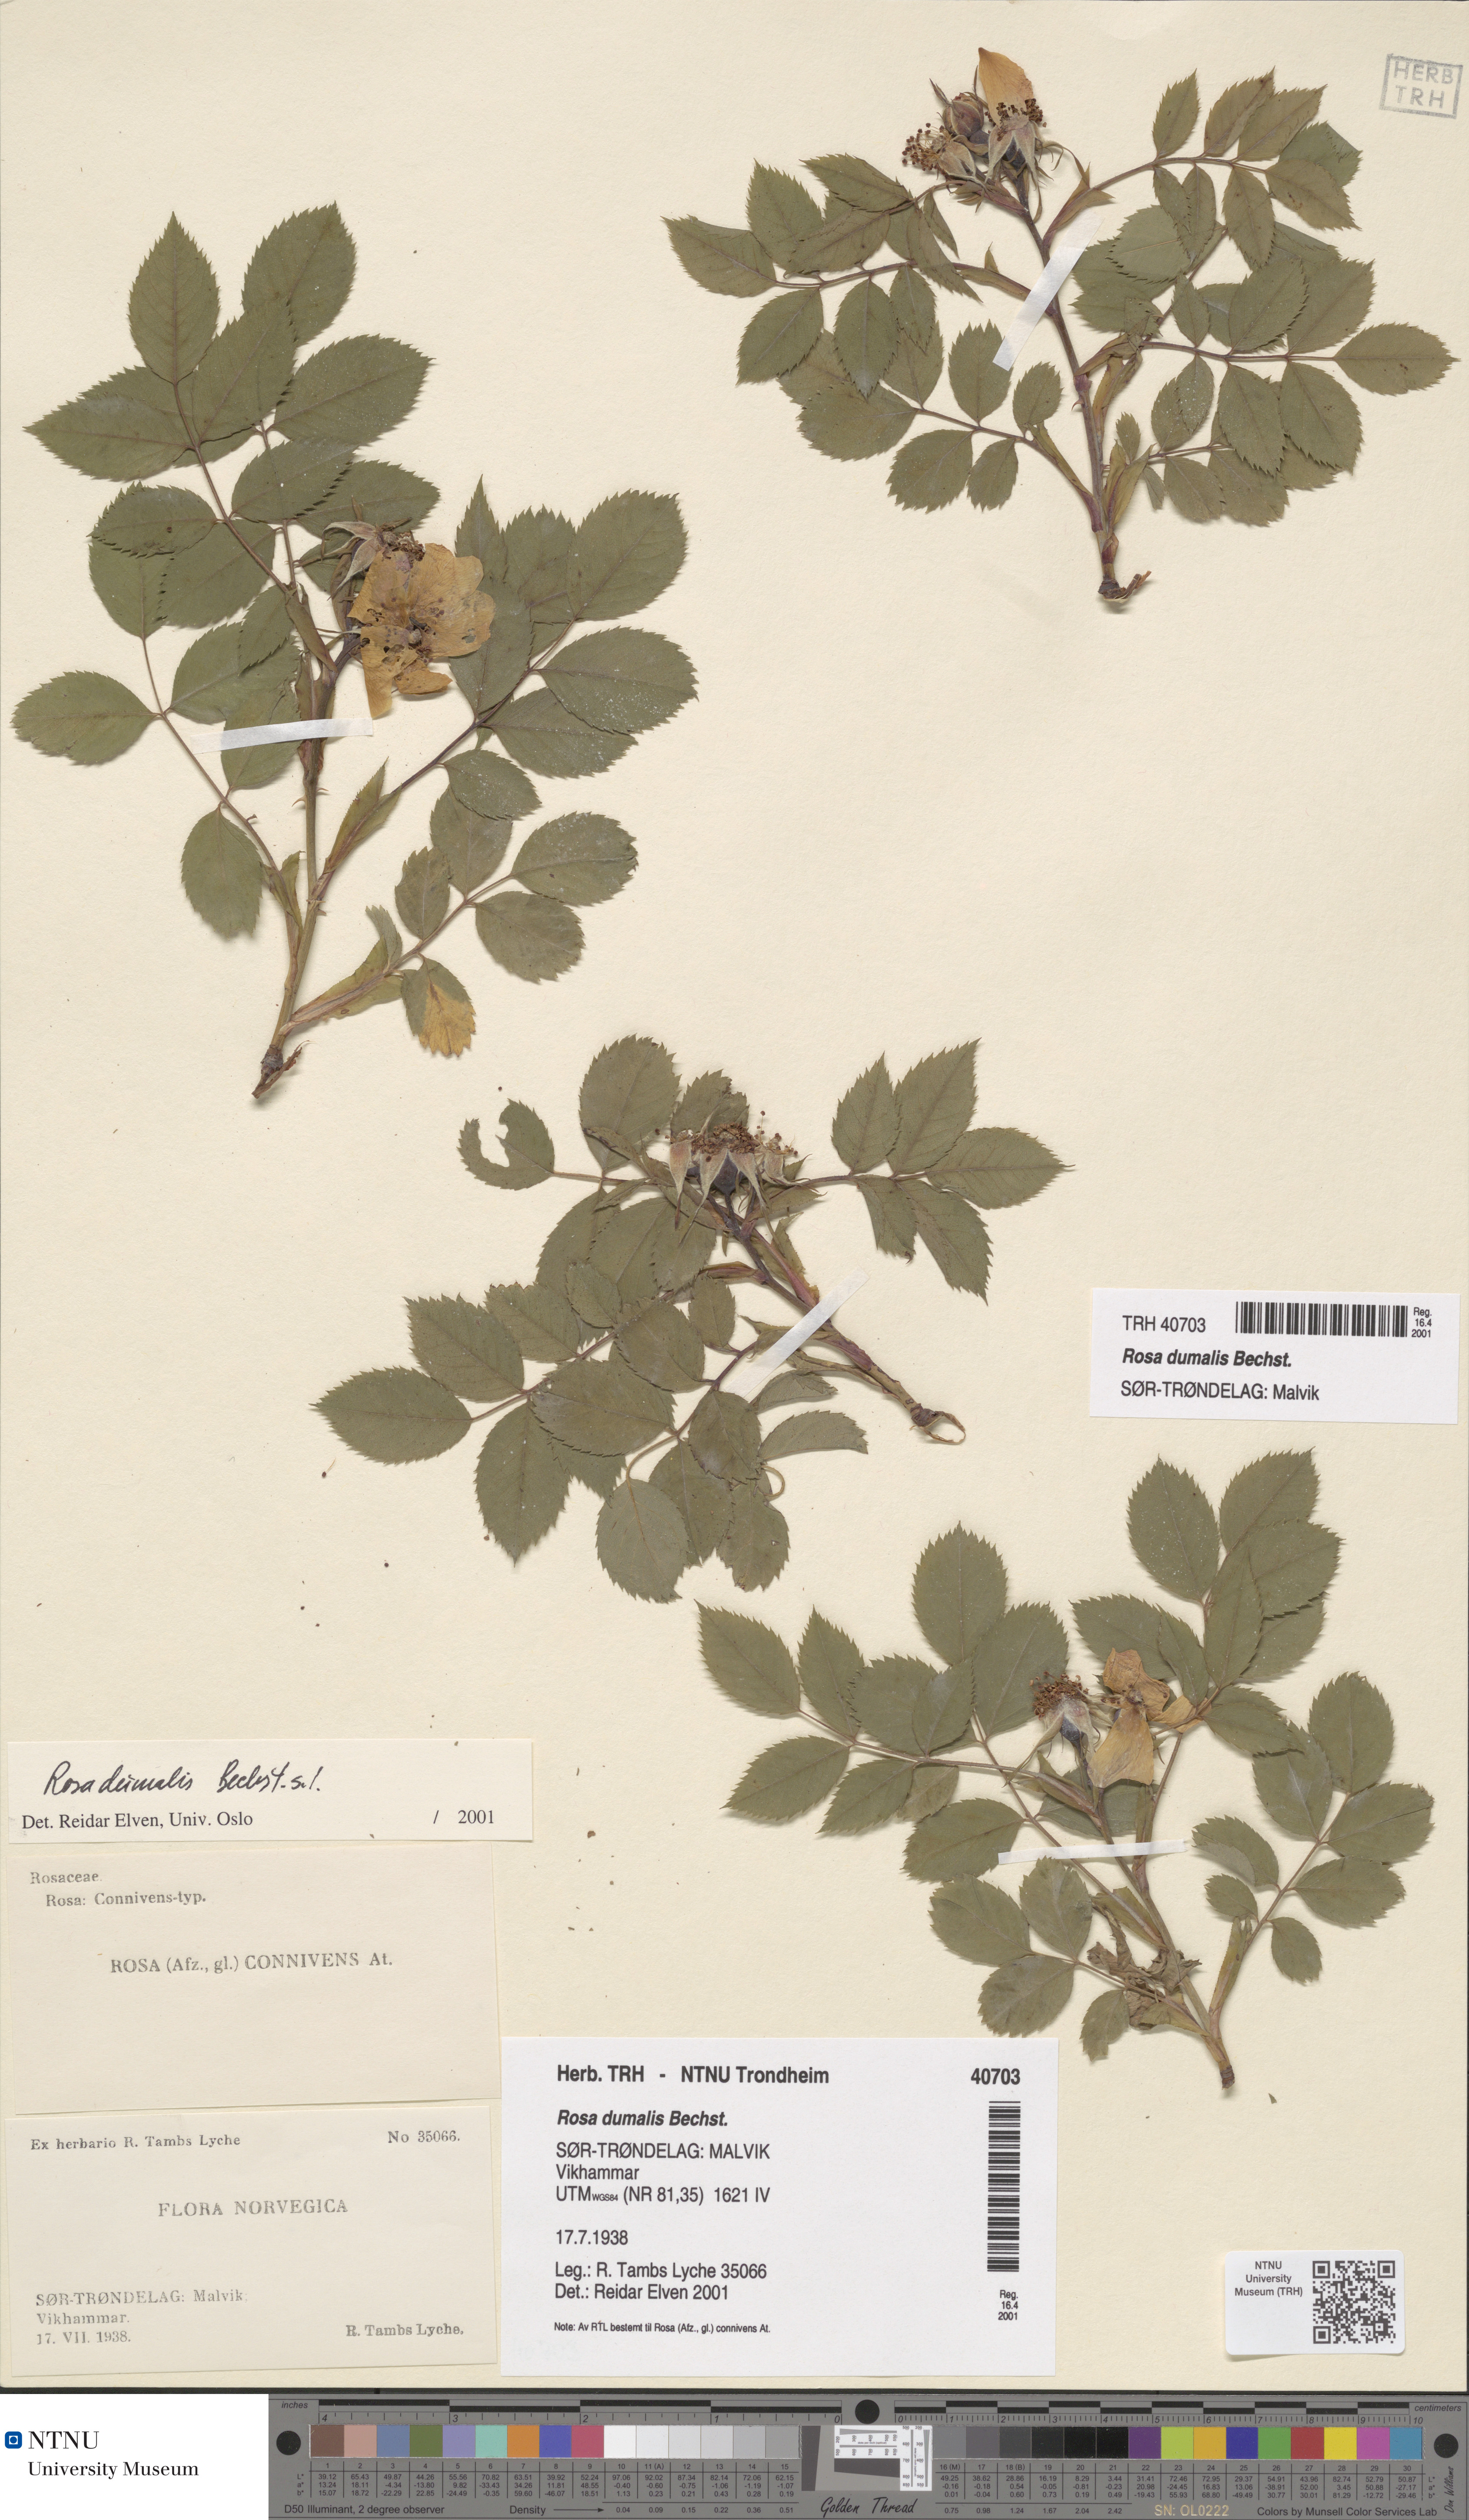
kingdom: Plantae
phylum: Tracheophyta
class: Magnoliopsida
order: Rosales
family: Rosaceae
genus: Rosa
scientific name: Rosa dumalis
